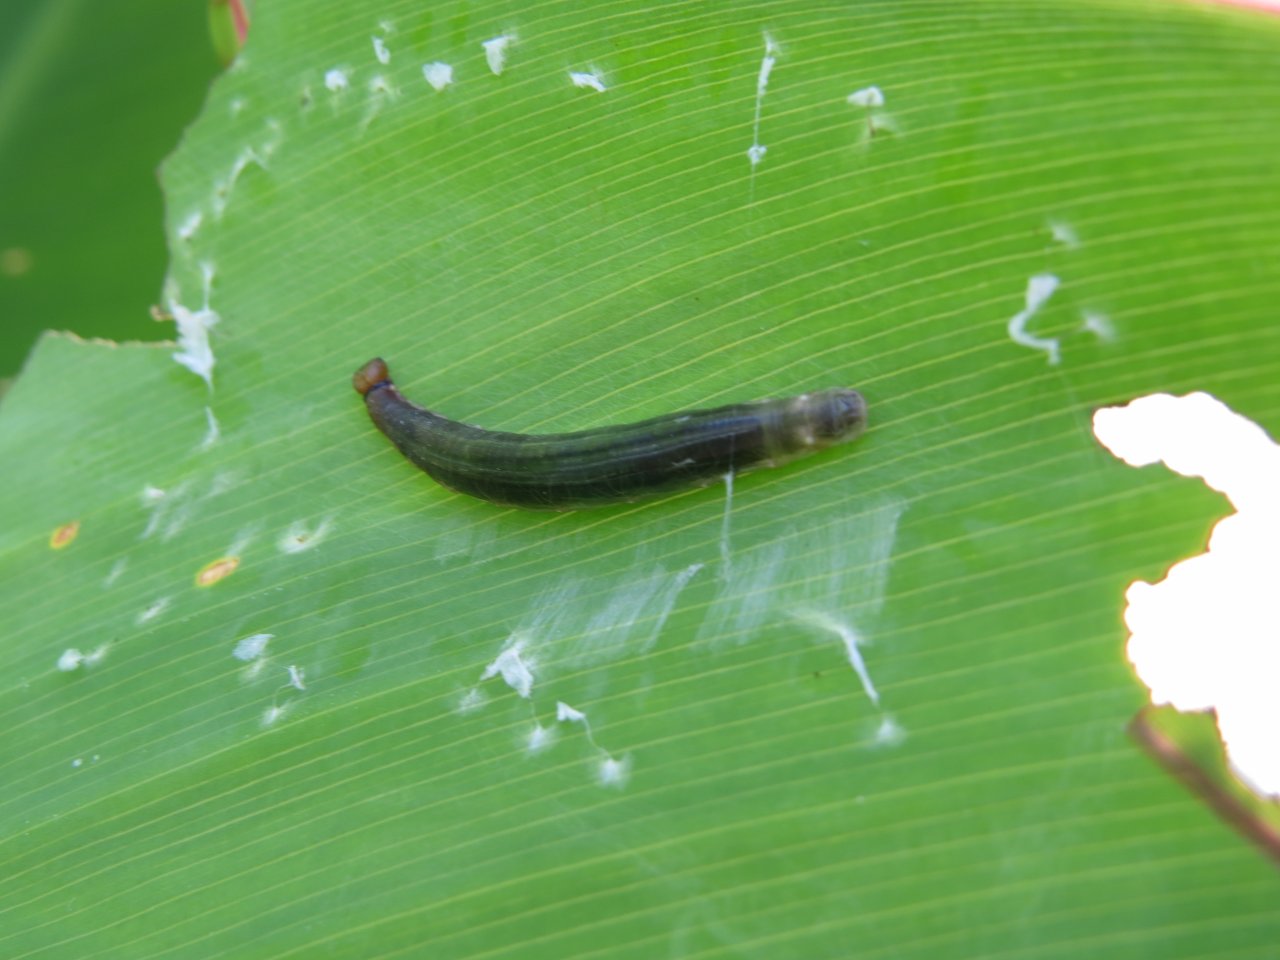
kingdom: Animalia
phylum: Arthropoda
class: Insecta
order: Lepidoptera
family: Hesperiidae
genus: Calpodes
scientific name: Calpodes ethlius
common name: Brazilian Skipper
